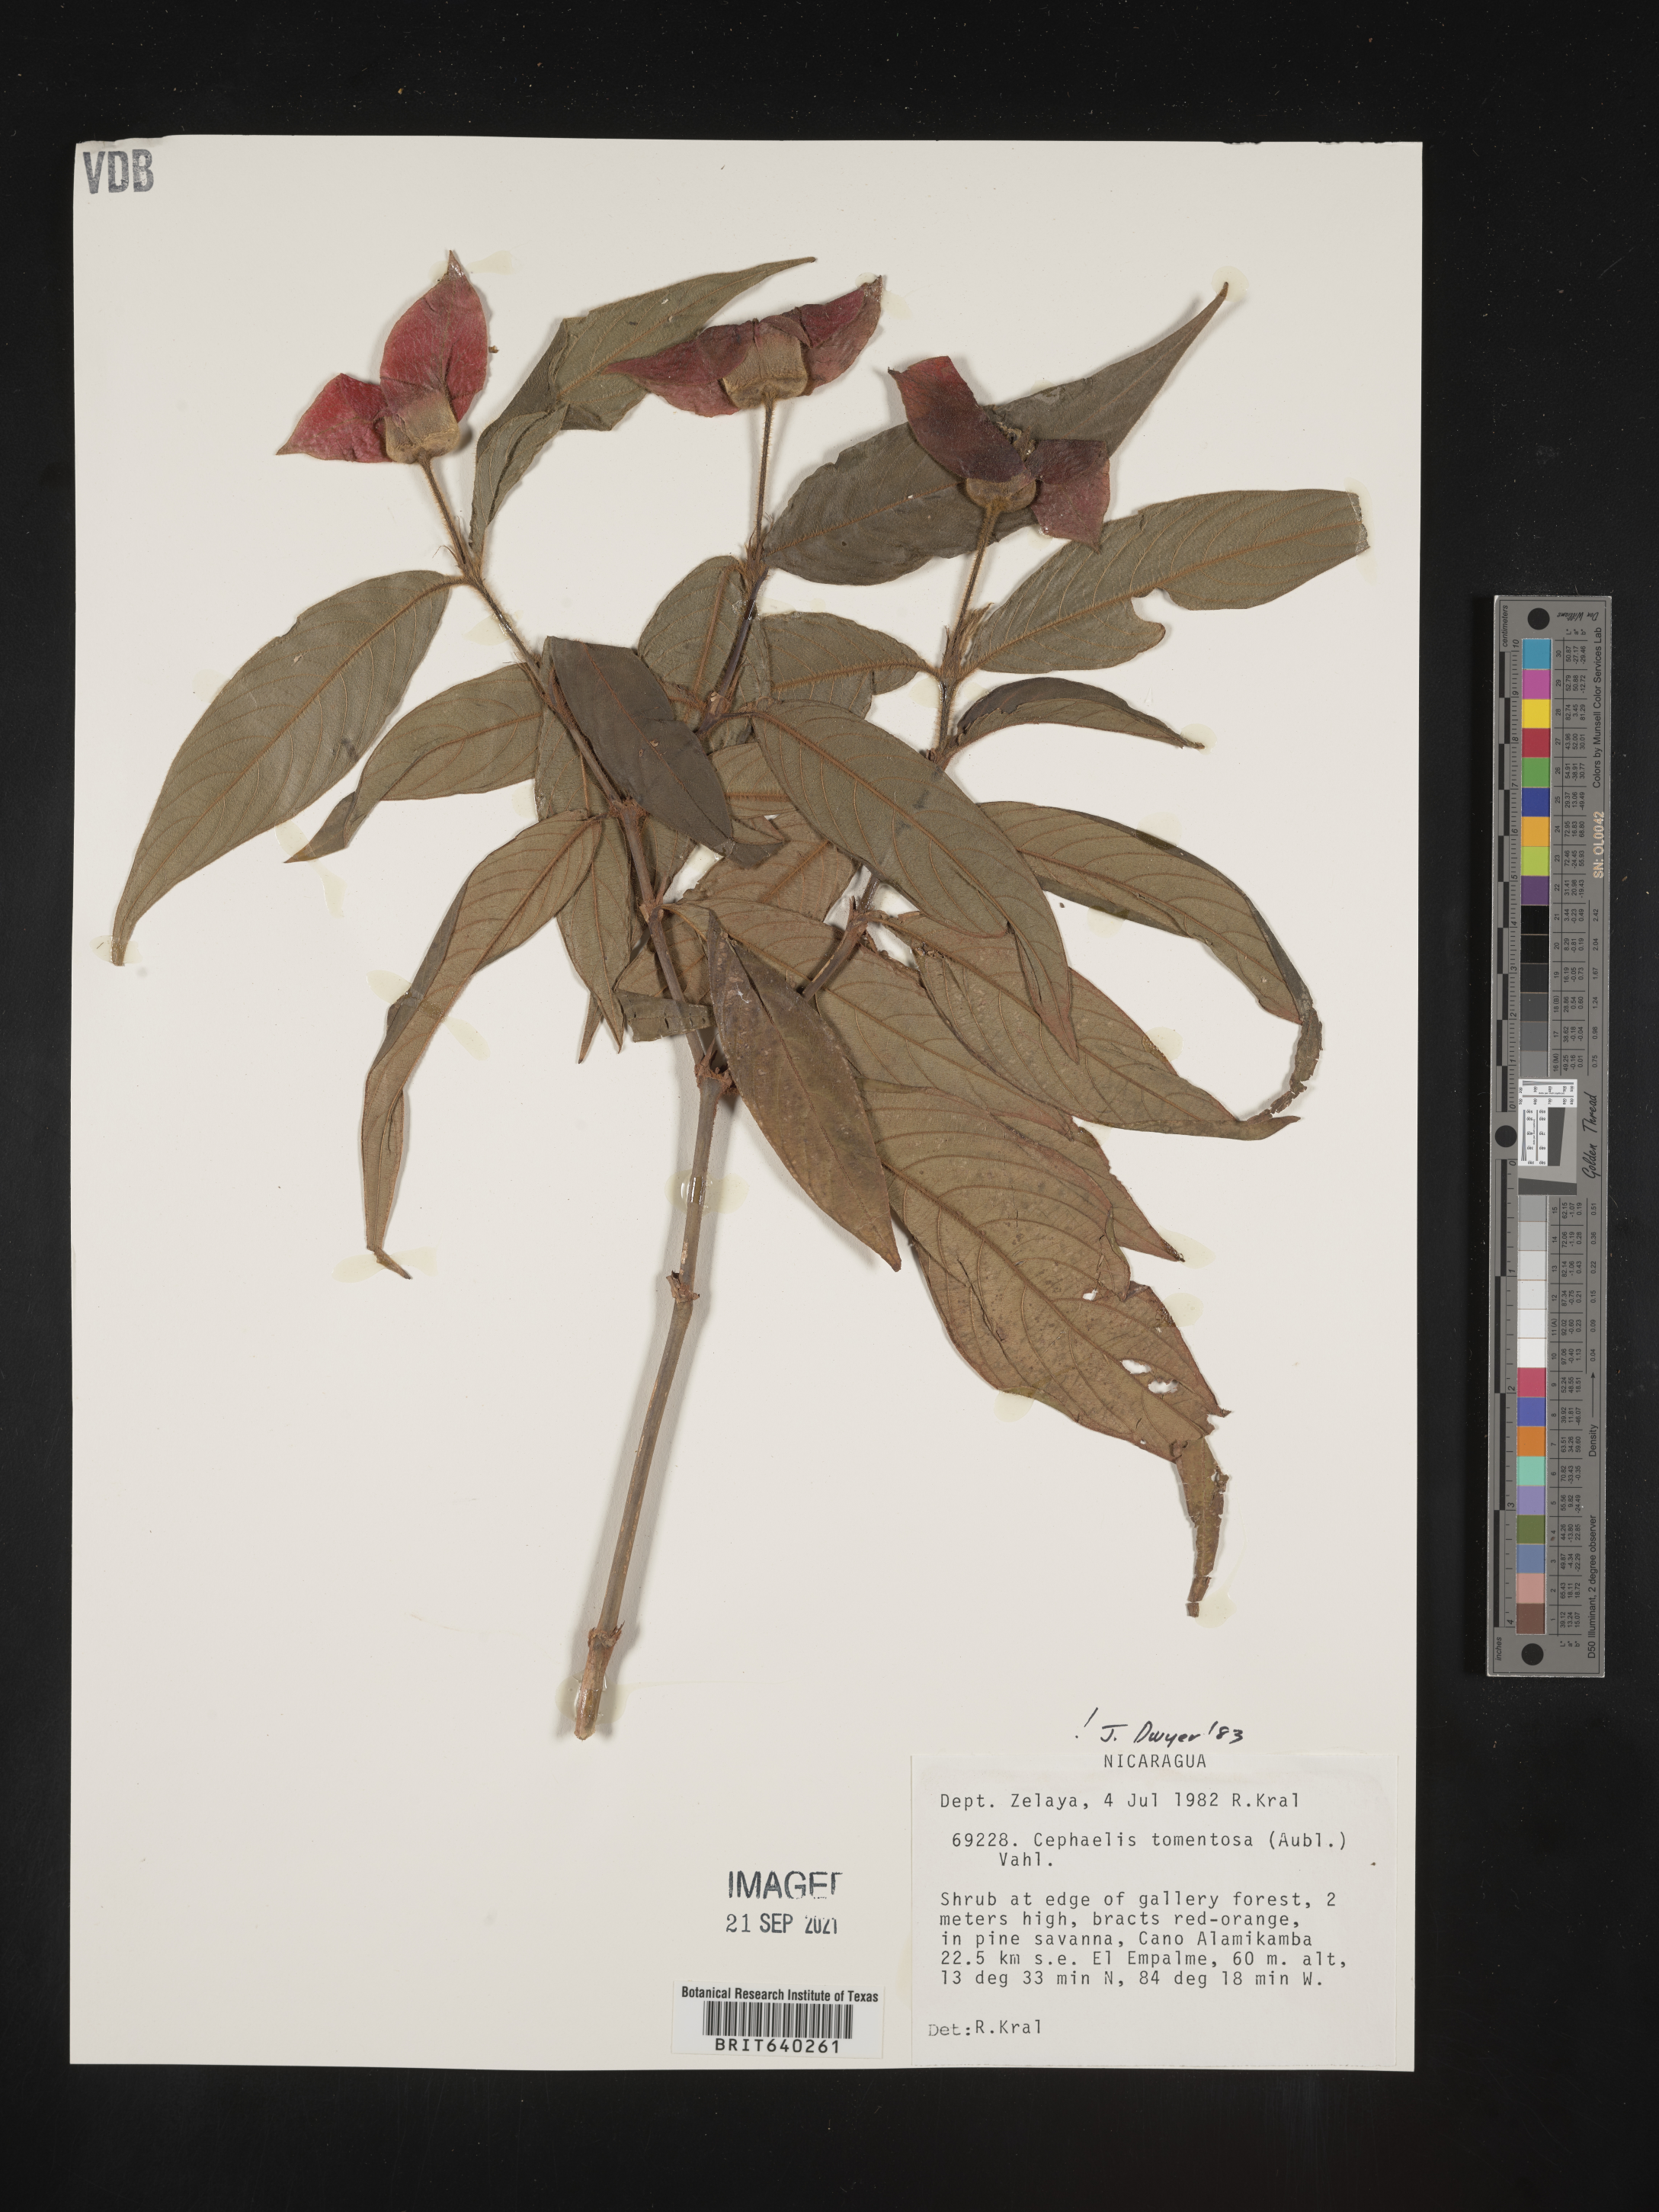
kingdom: Plantae
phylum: Tracheophyta
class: Magnoliopsida
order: Gentianales
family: Rubiaceae
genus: Psychotria
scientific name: Psychotria
